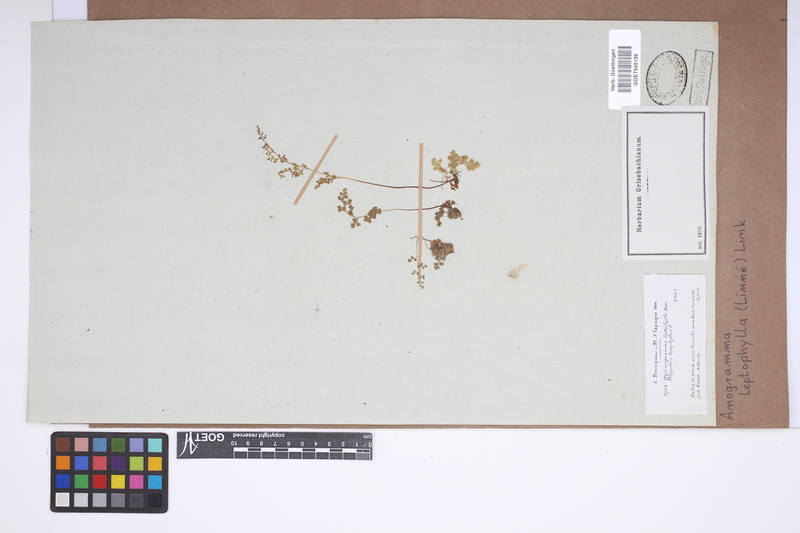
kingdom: Plantae
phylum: Tracheophyta
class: Polypodiopsida
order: Polypodiales
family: Pteridaceae
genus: Anogramma
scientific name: Anogramma leptophylla
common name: Jersey fern
